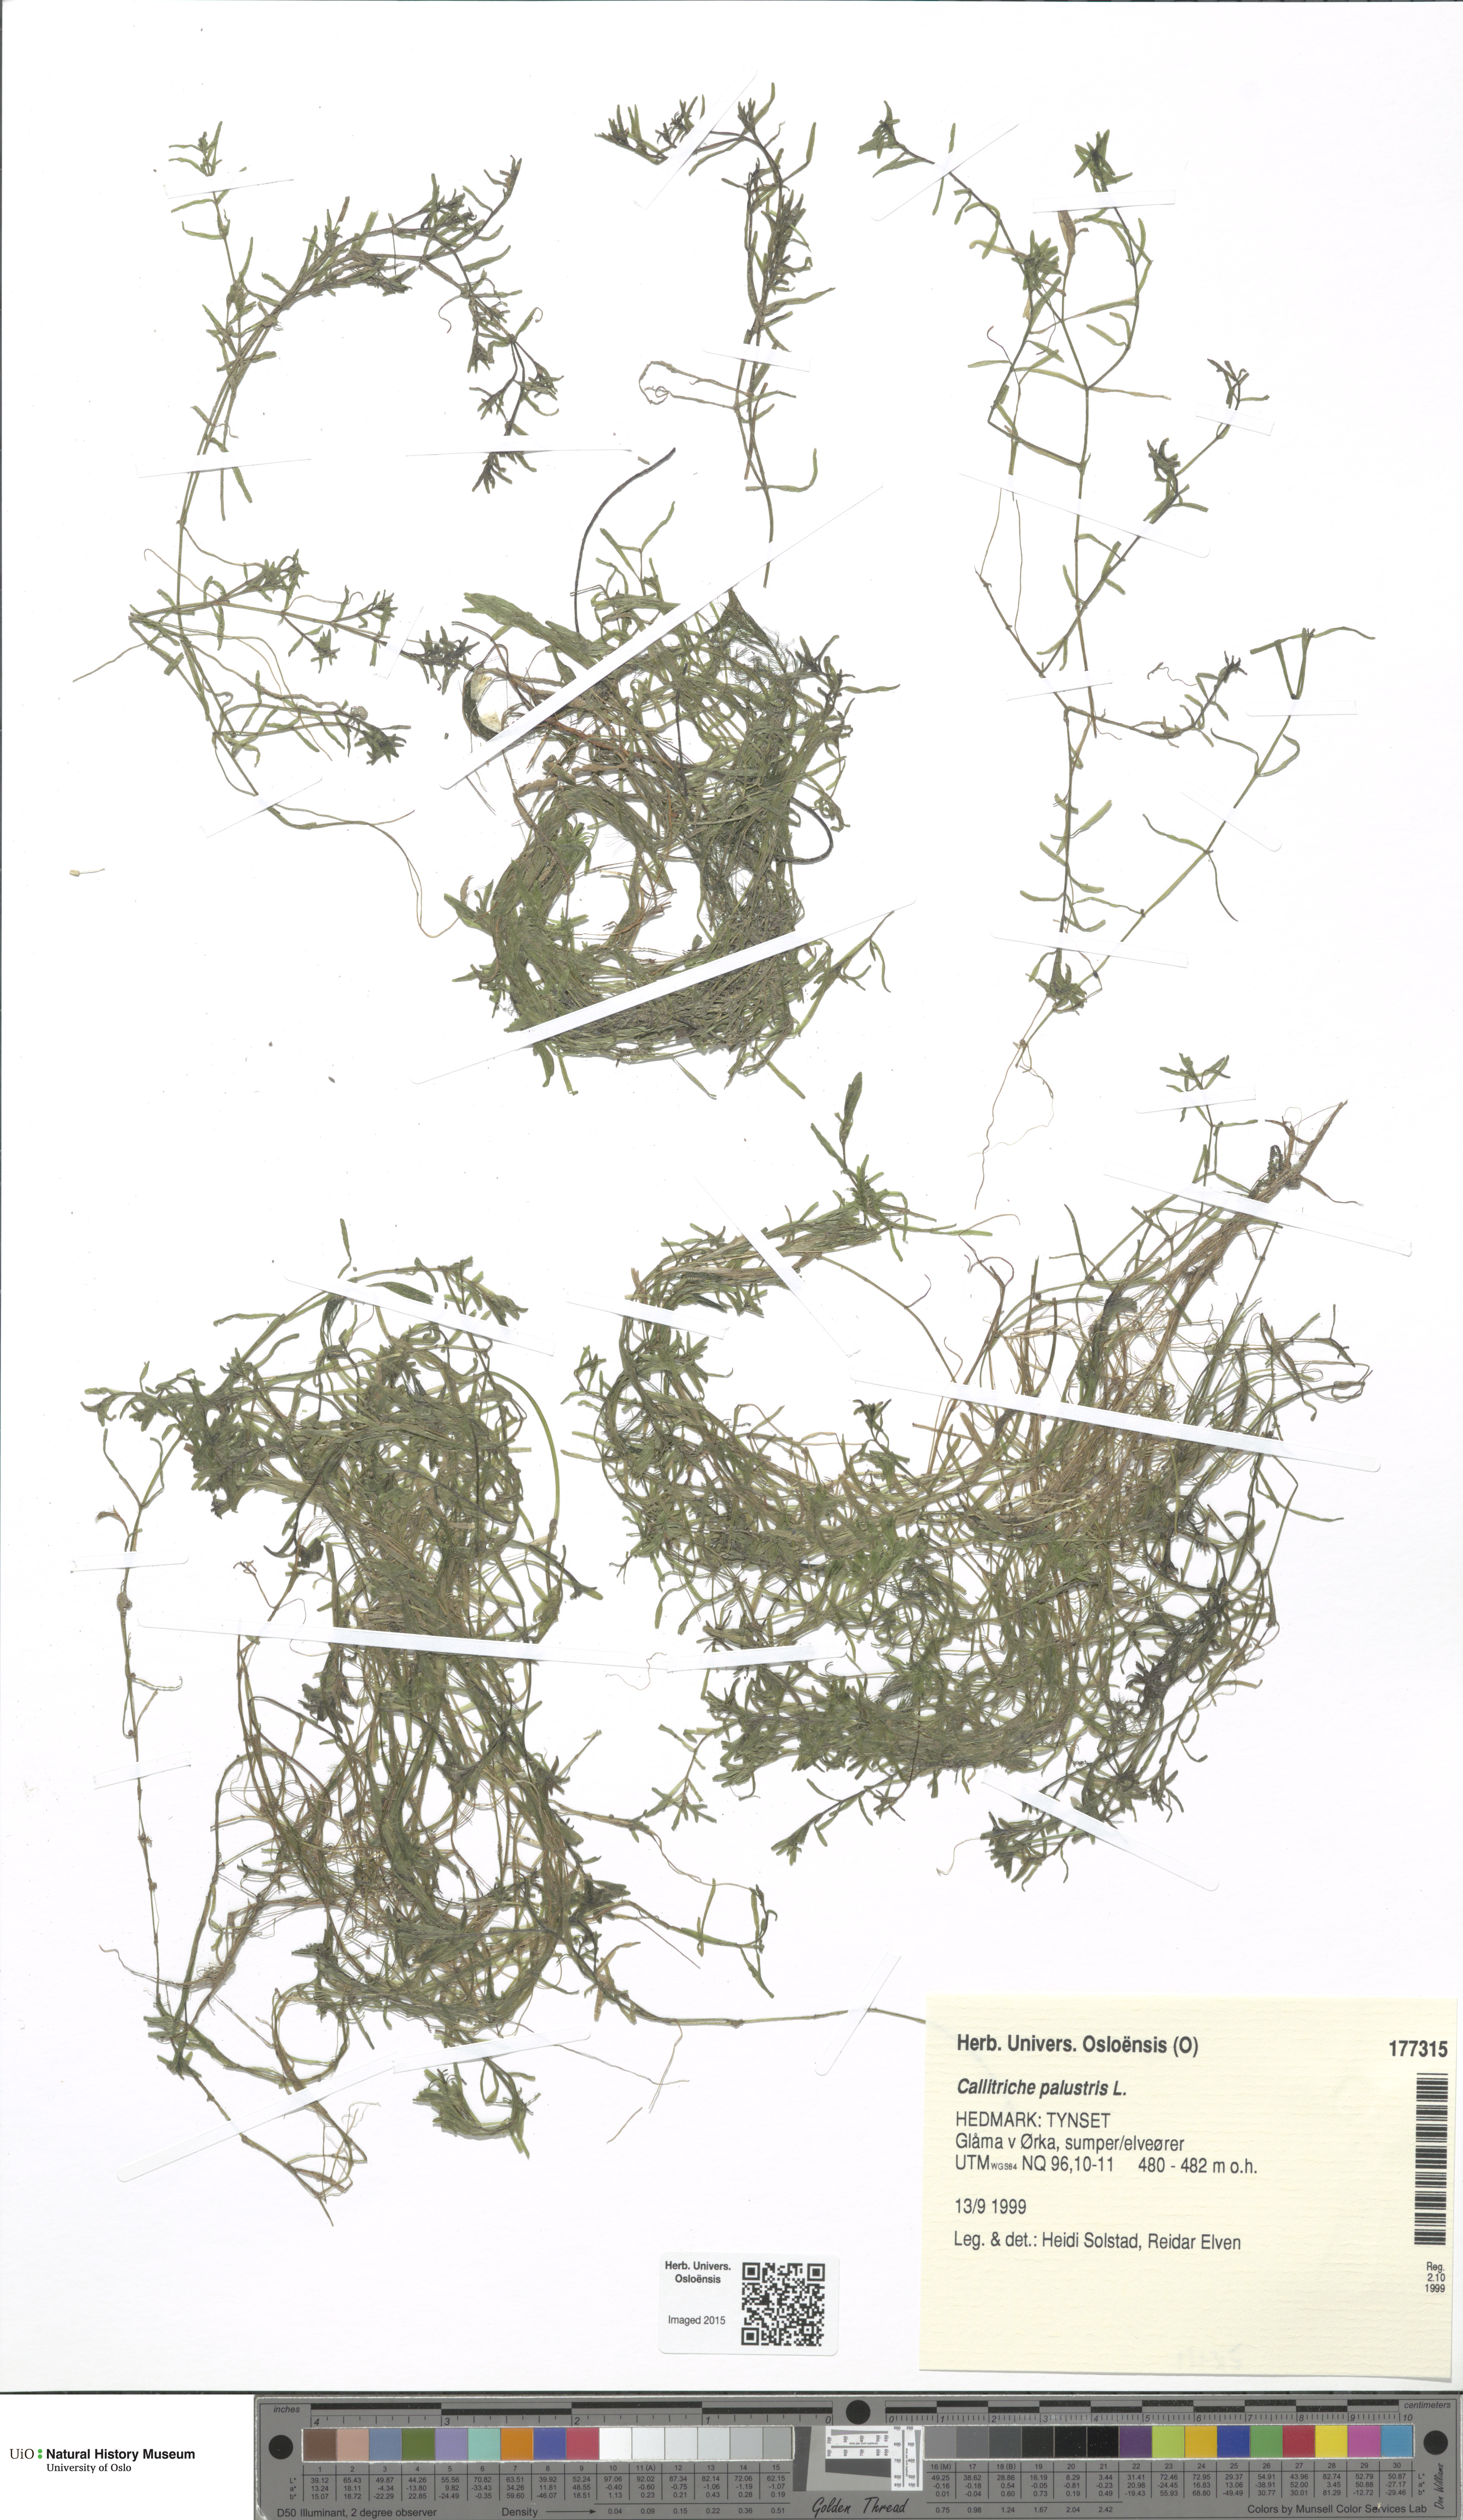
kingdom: Plantae
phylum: Tracheophyta
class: Magnoliopsida
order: Lamiales
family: Plantaginaceae
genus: Callitriche
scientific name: Callitriche palustris
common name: Spring water-starwort
